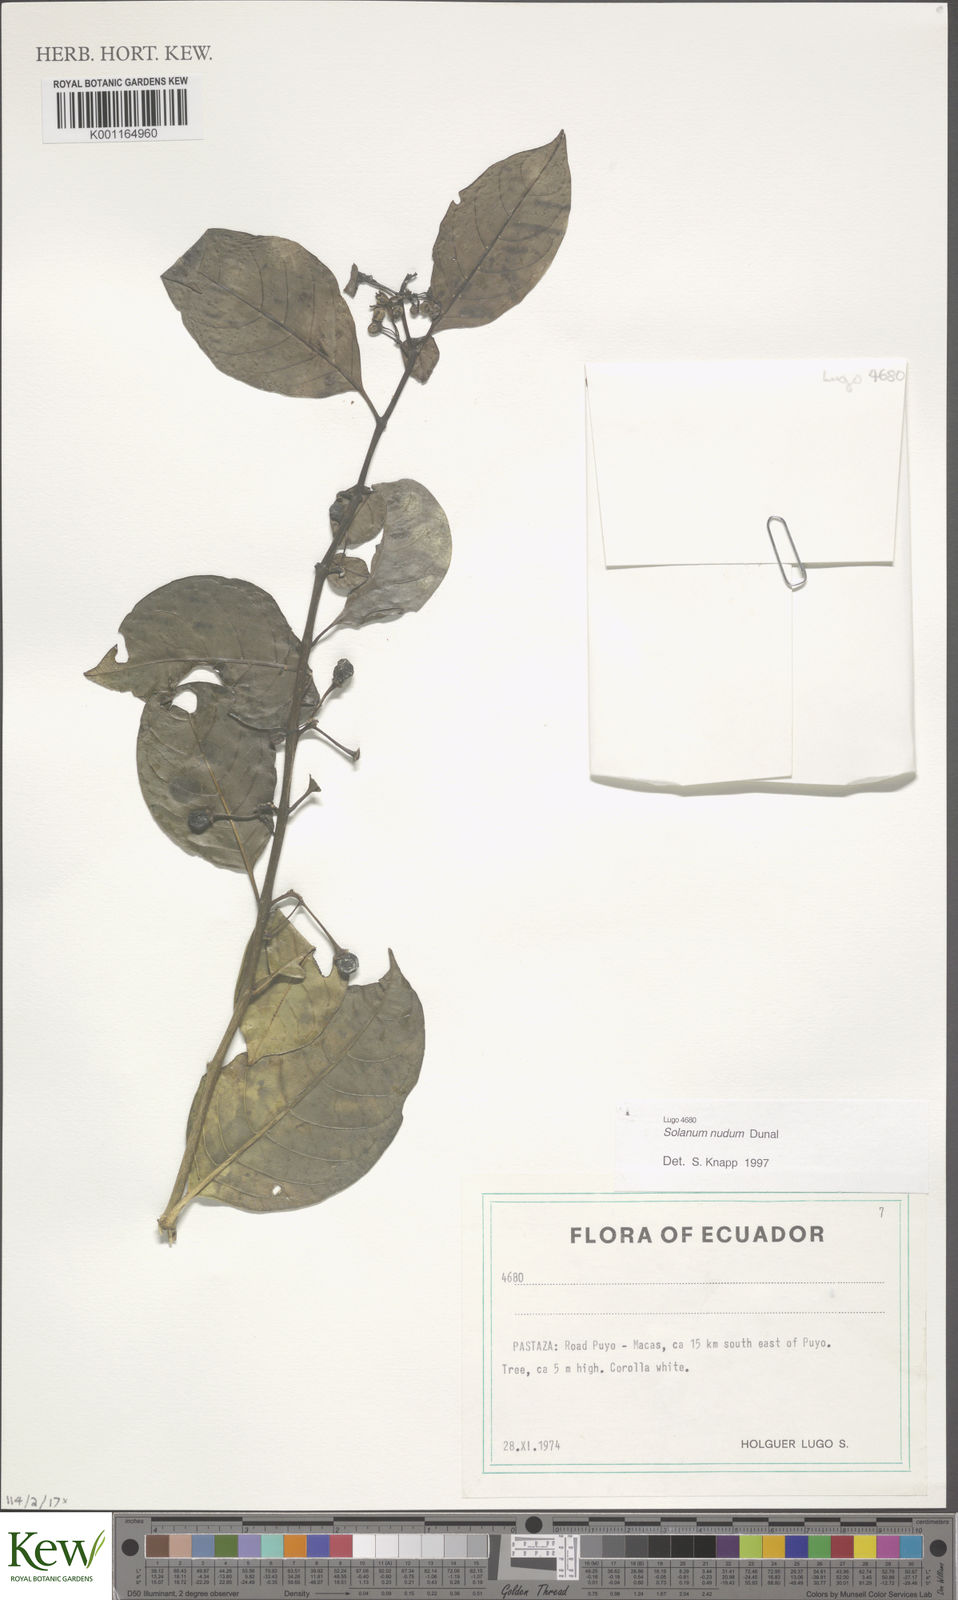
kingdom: Plantae
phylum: Tracheophyta
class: Magnoliopsida
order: Solanales
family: Solanaceae
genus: Solanum
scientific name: Solanum nudum
